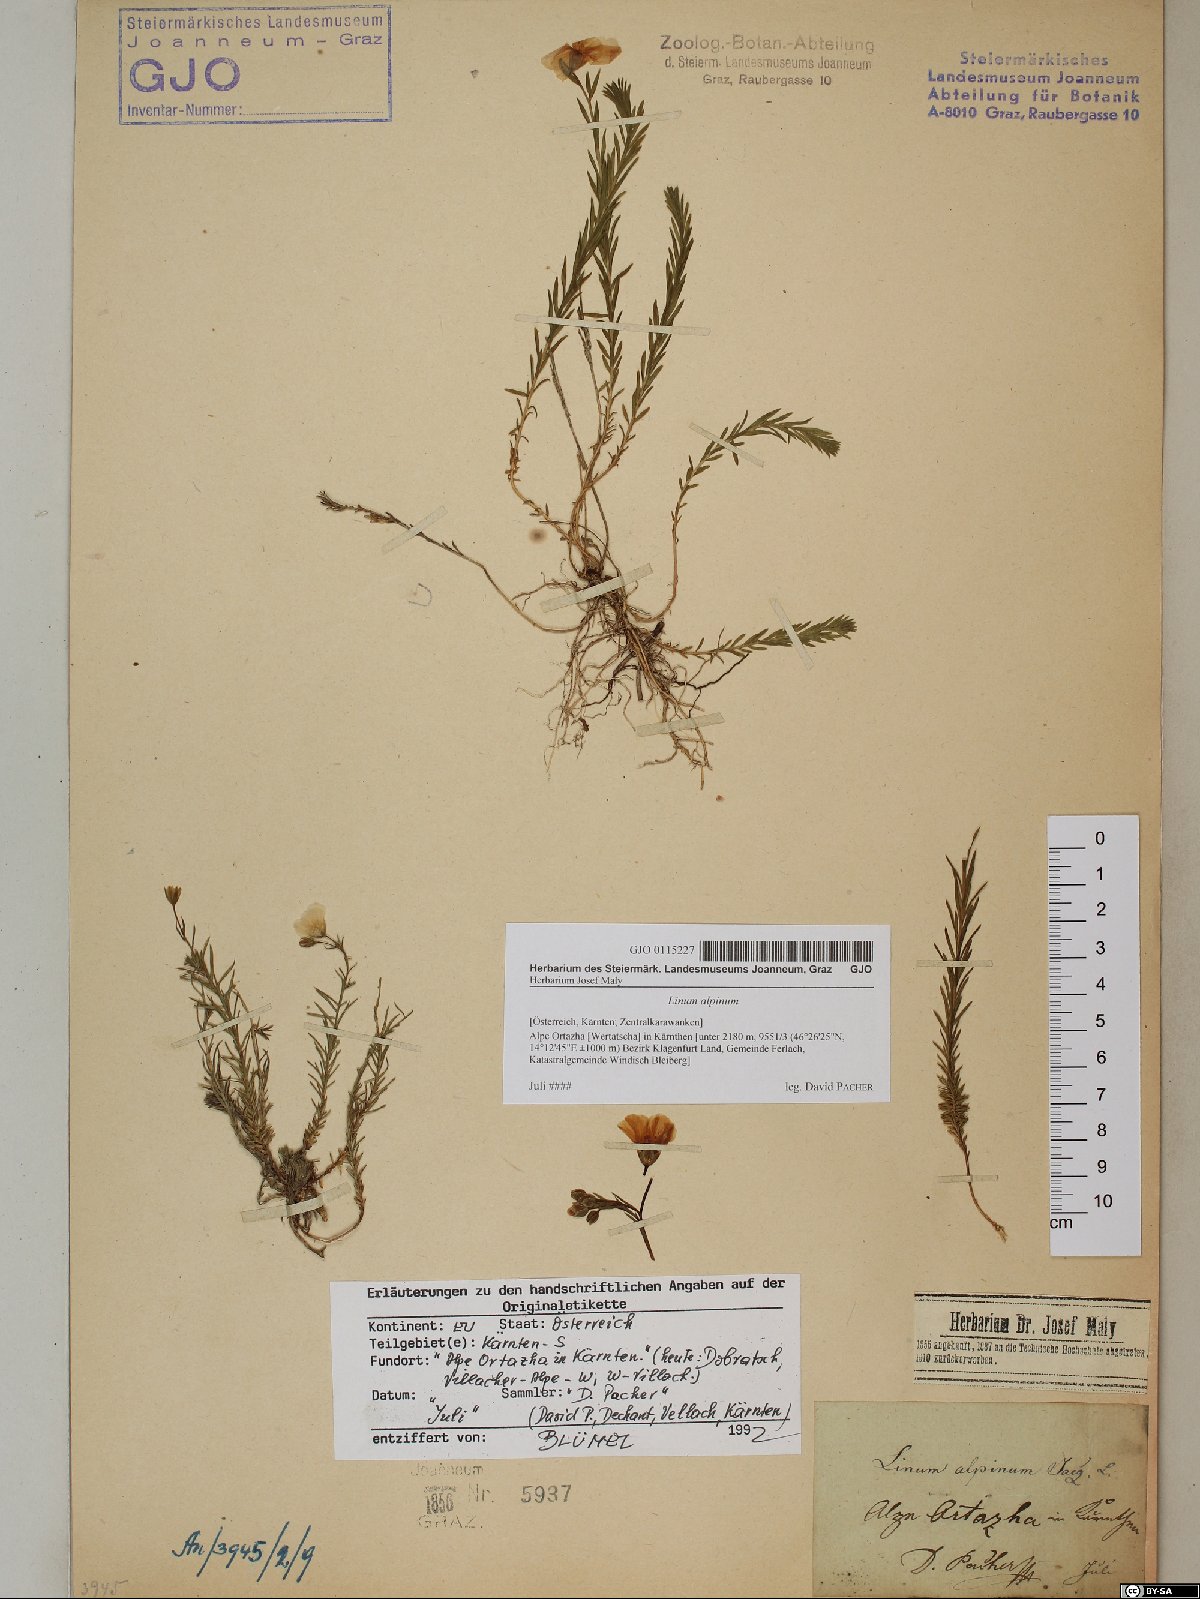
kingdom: Plantae
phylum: Tracheophyta
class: Magnoliopsida
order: Malpighiales
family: Linaceae
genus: Linum
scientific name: Linum alpinum
